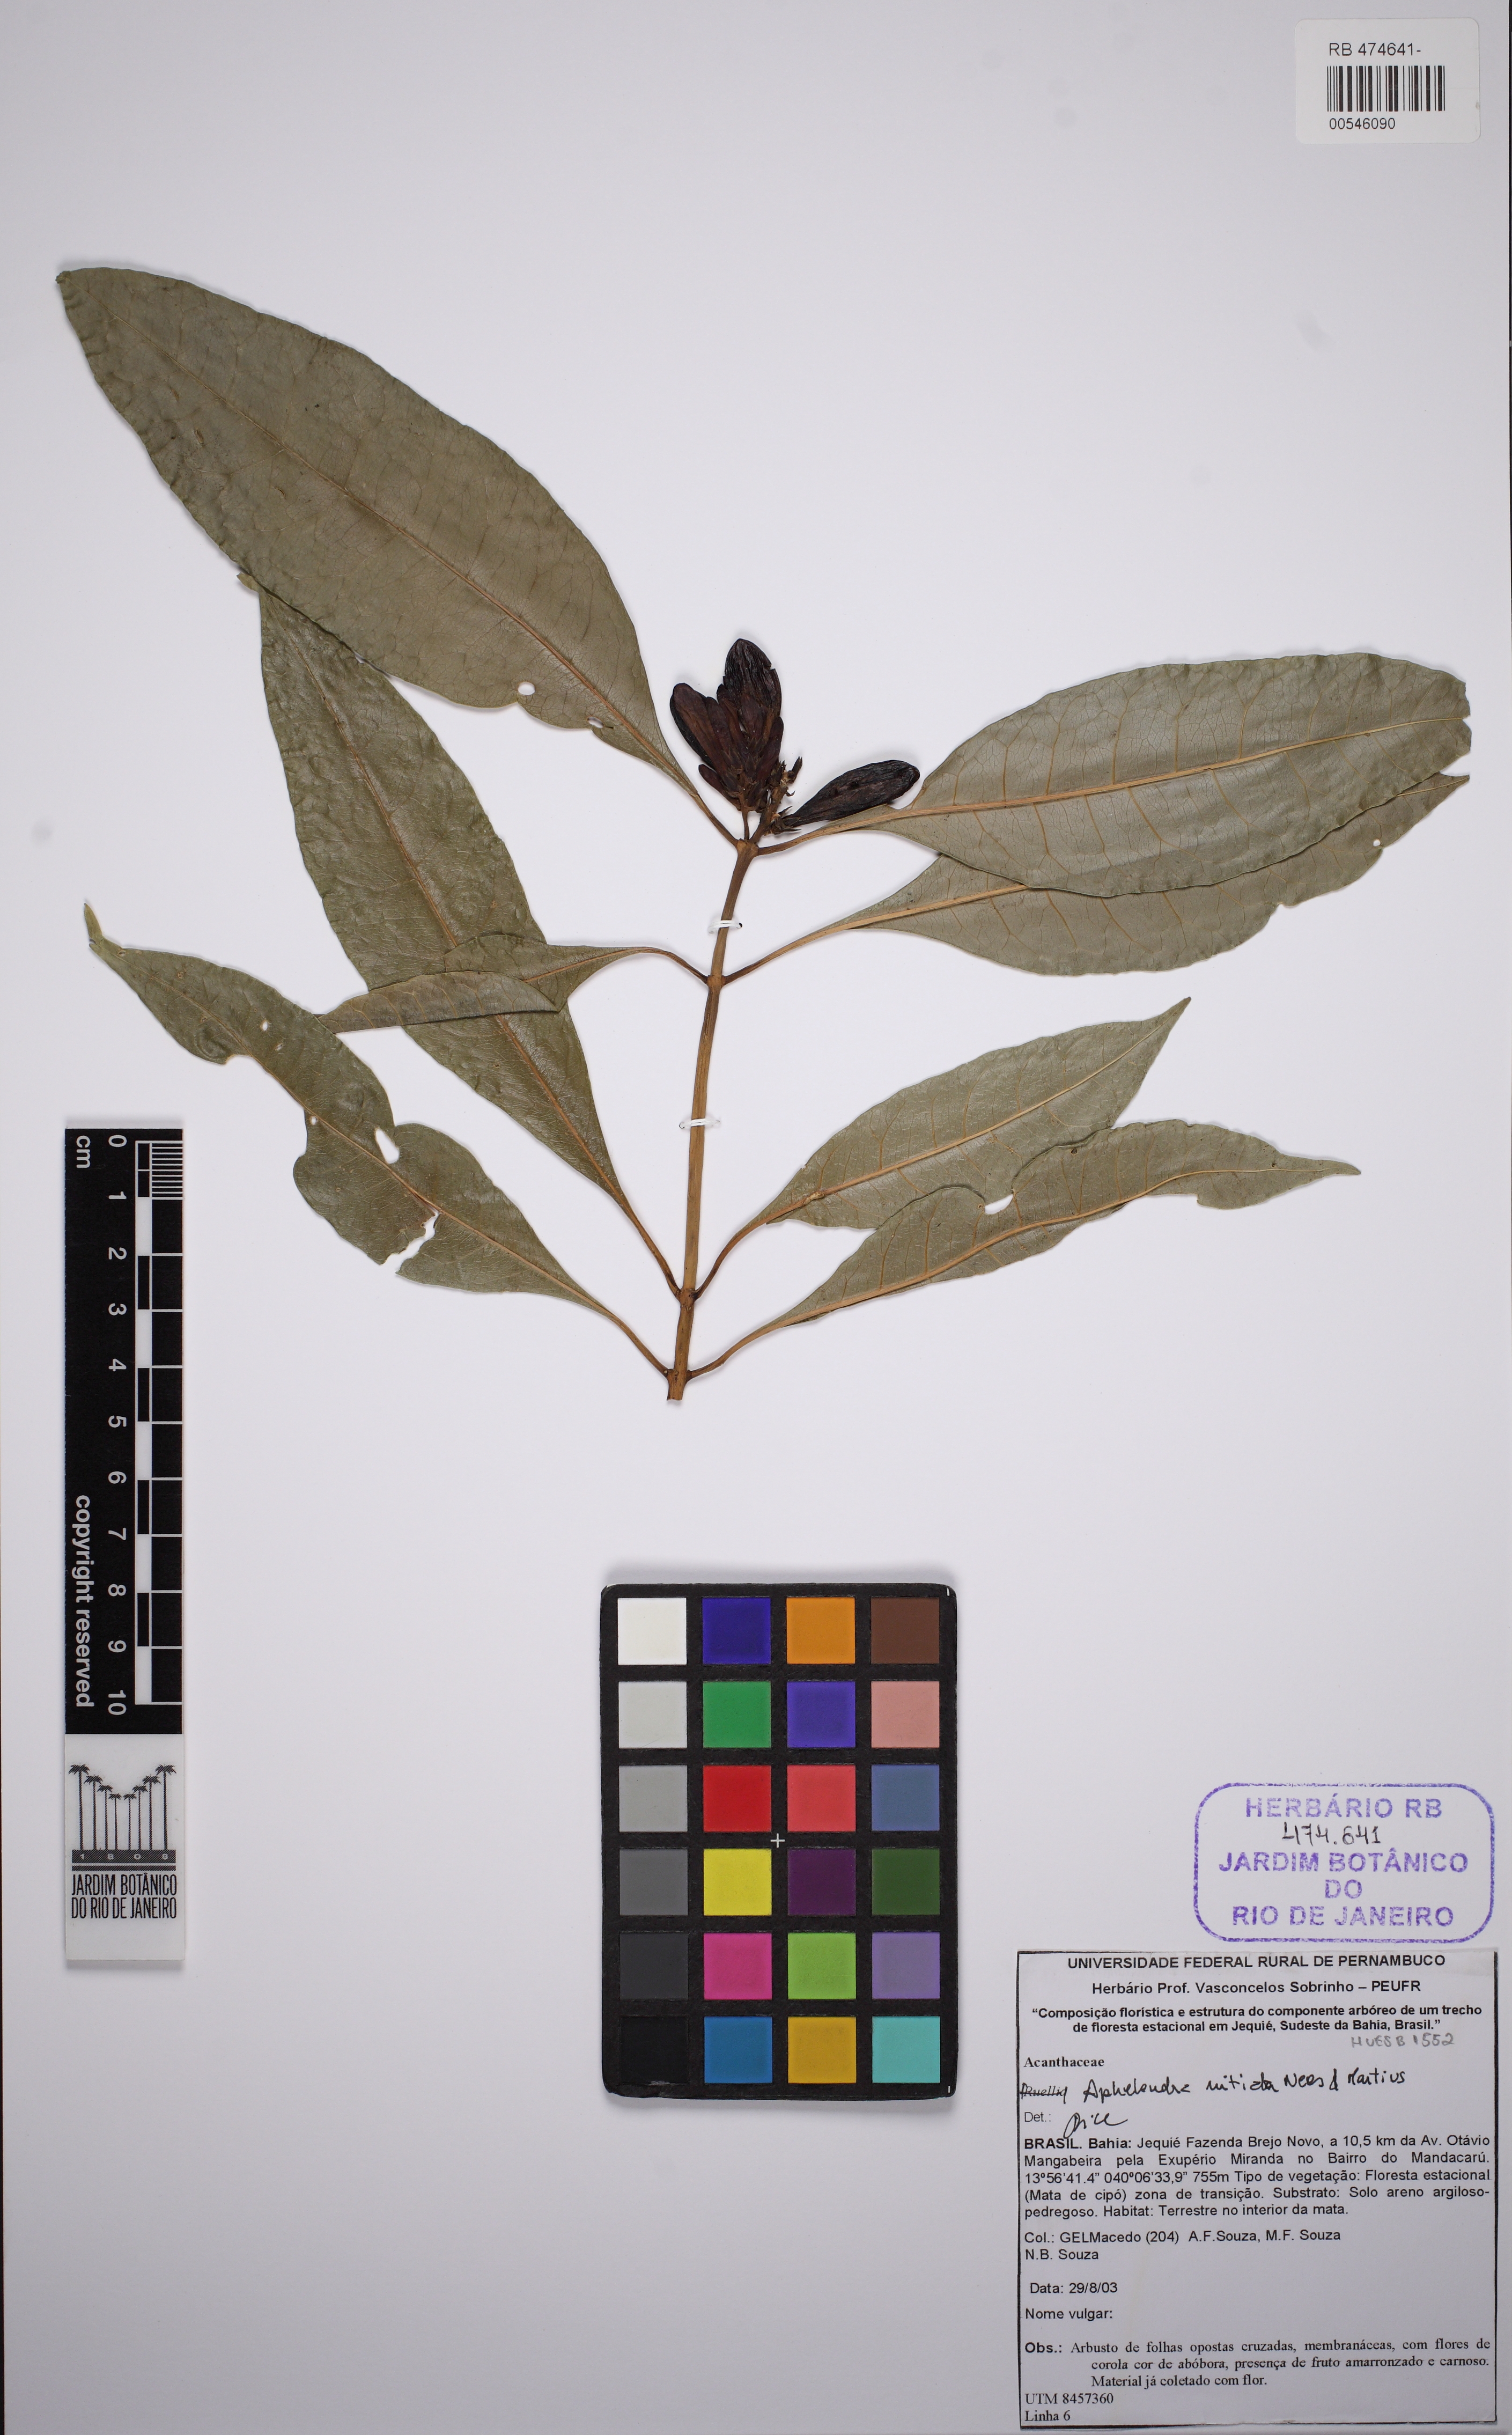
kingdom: Plantae
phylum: Tracheophyta
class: Magnoliopsida
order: Lamiales
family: Acanthaceae
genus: Aphelandra
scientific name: Aphelandra nitida
